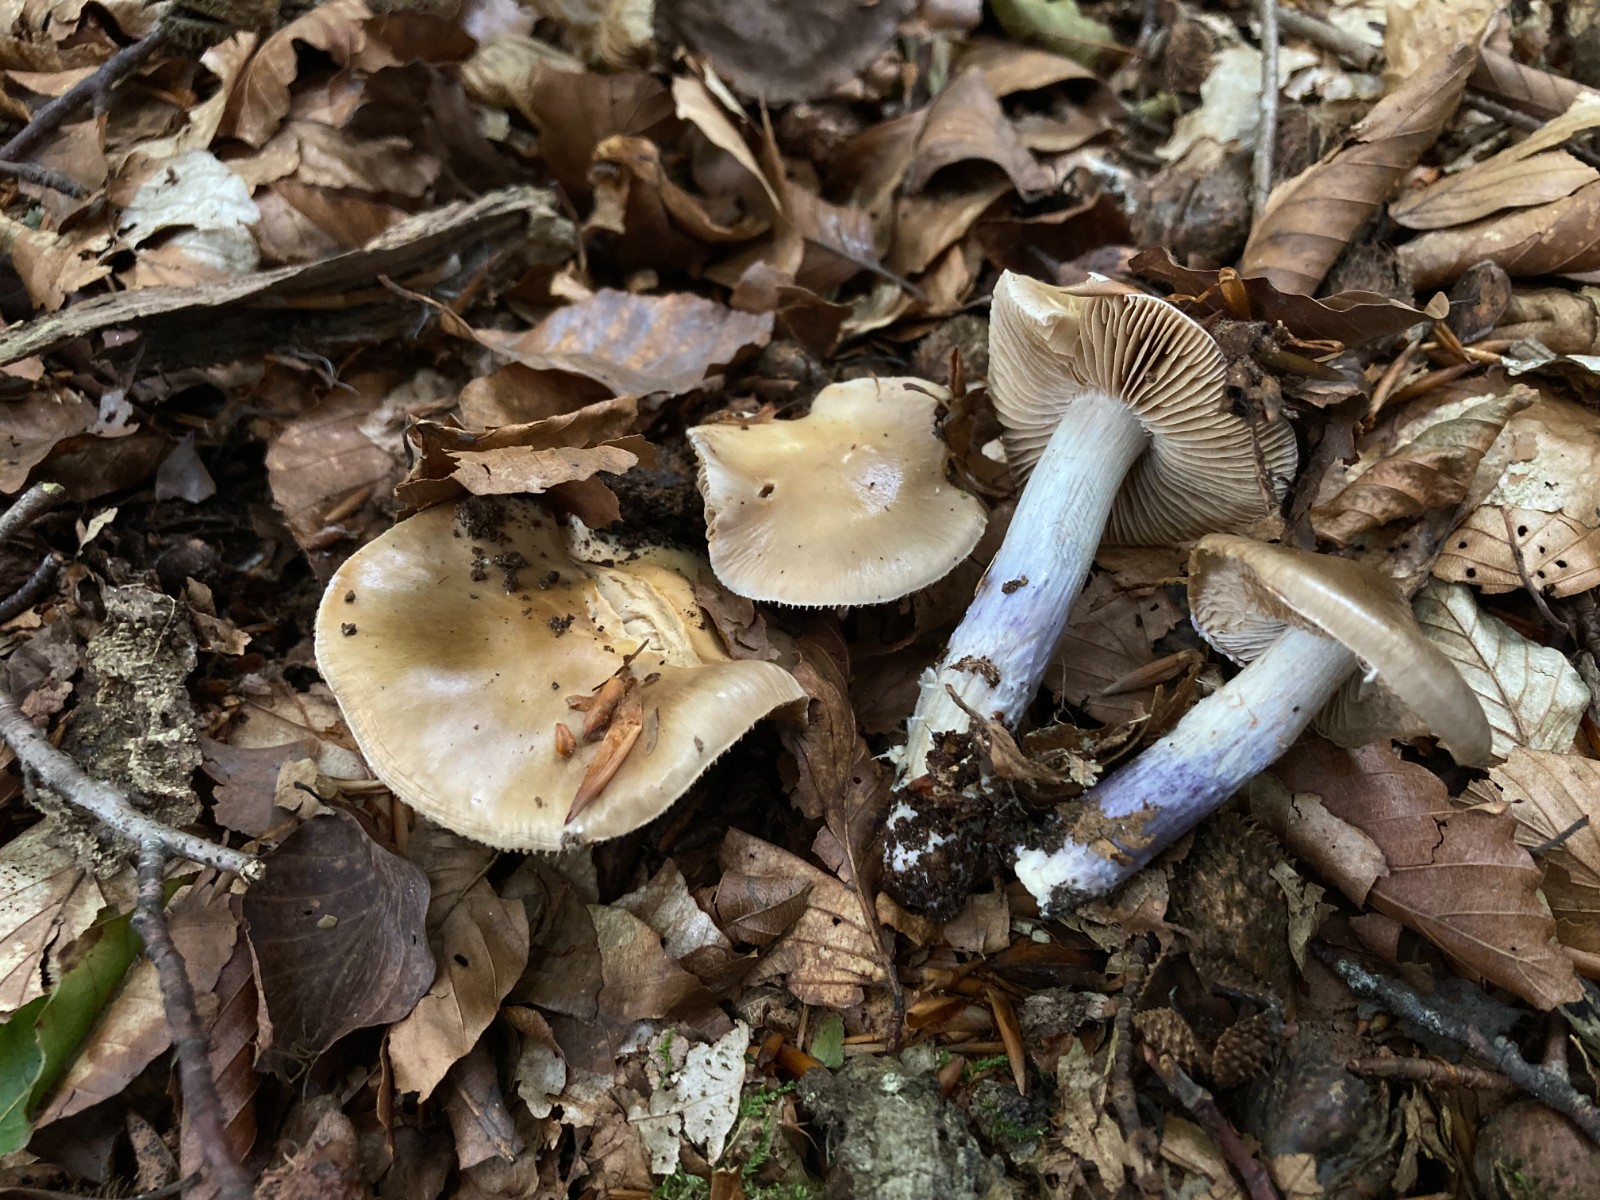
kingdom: Fungi
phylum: Basidiomycota
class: Agaricomycetes
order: Agaricales
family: Cortinariaceae
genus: Cortinarius
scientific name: Cortinarius elatior
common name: høj slørhat
